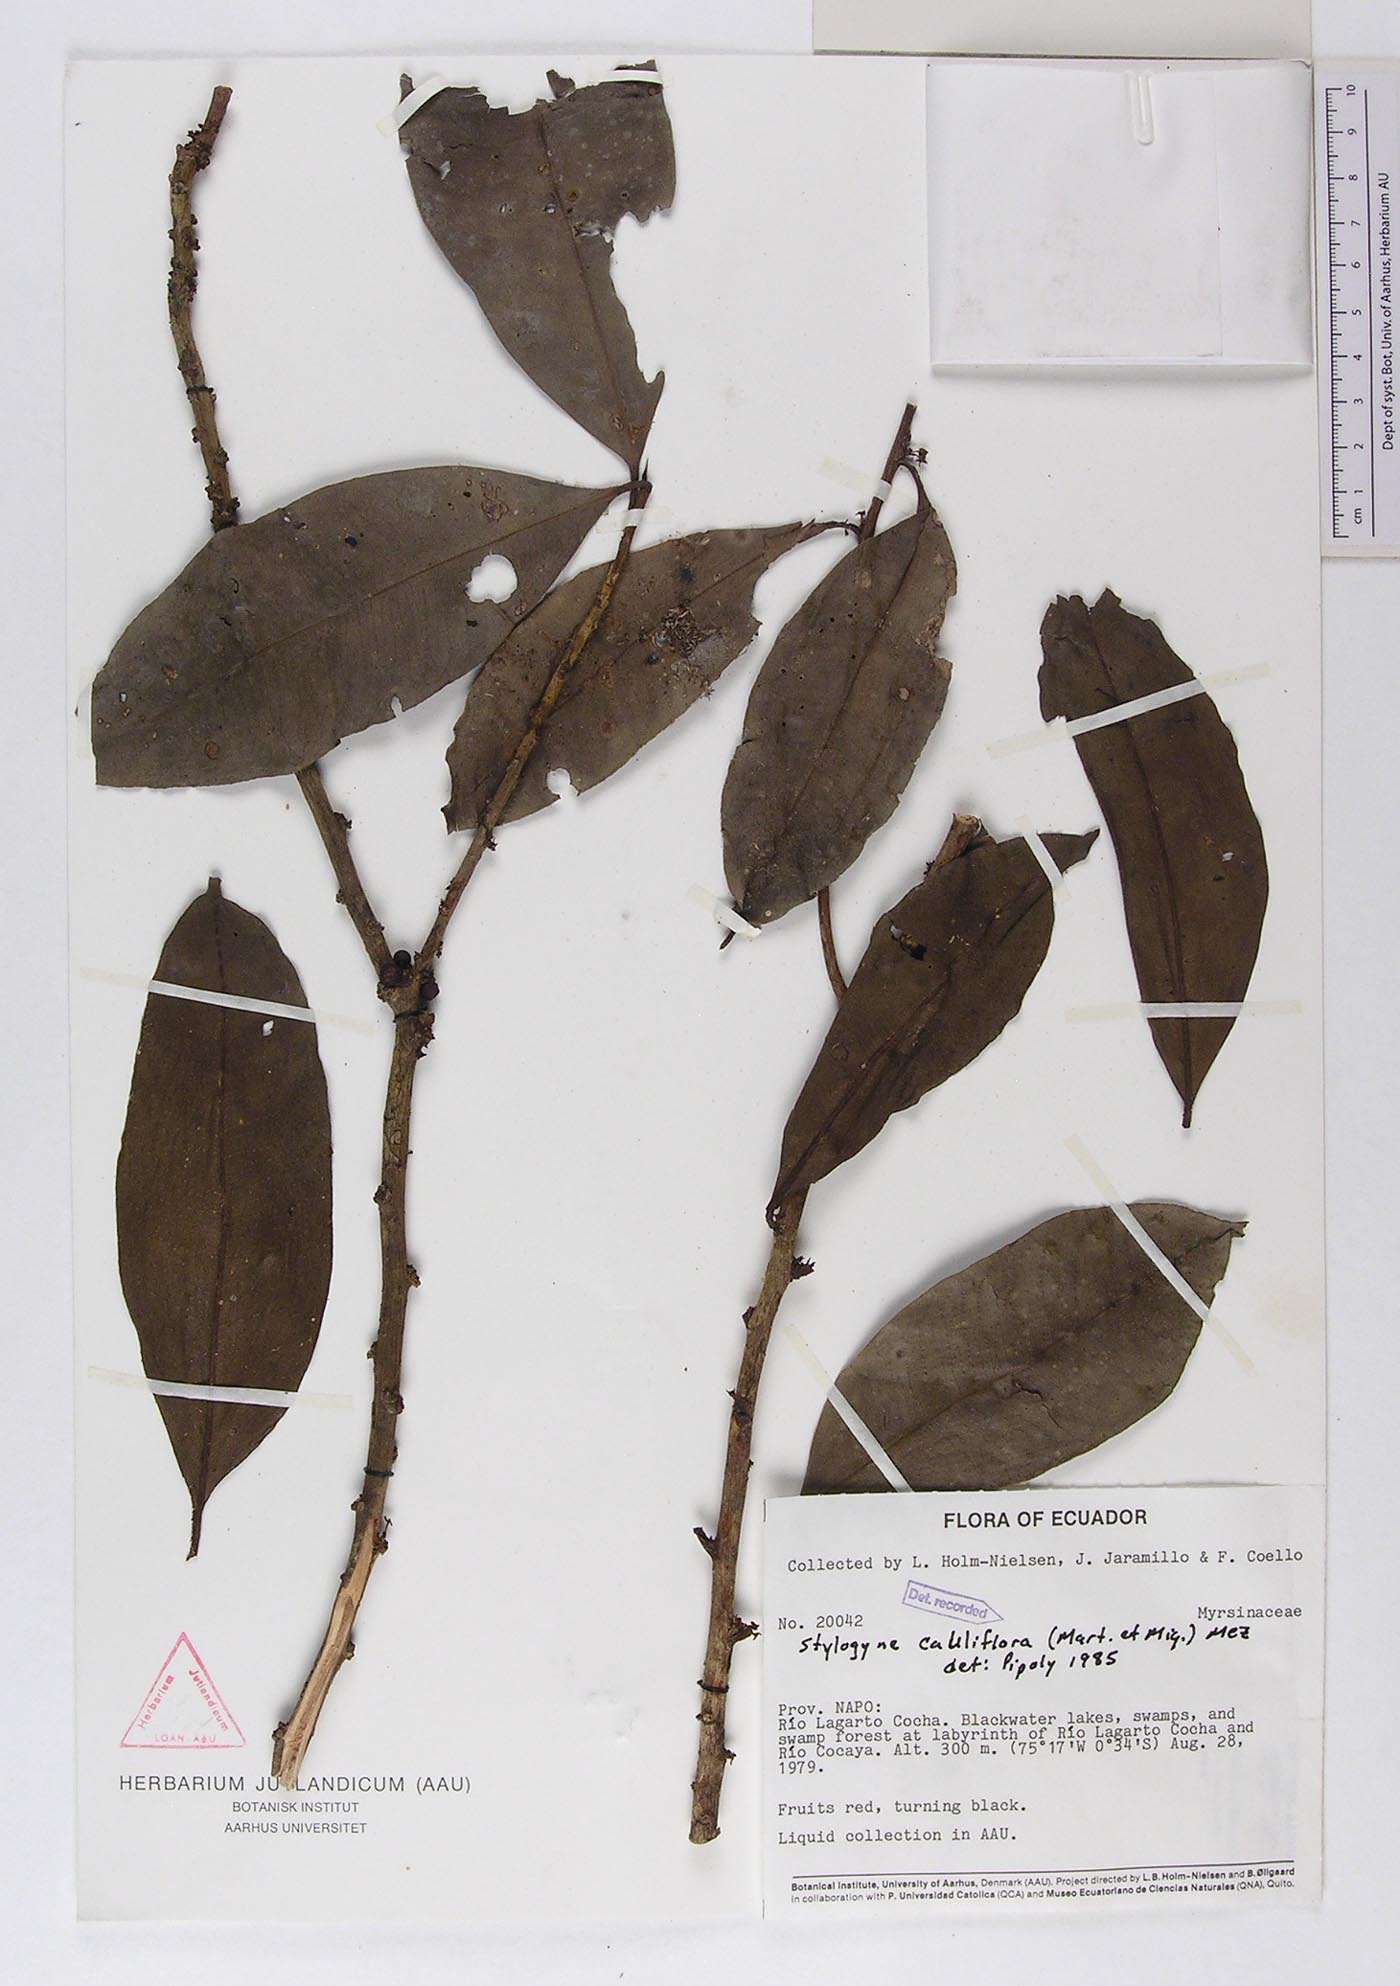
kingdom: Plantae
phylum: Tracheophyta
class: Magnoliopsida
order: Ericales
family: Primulaceae
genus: Stylogyne
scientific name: Stylogyne cauliflora
